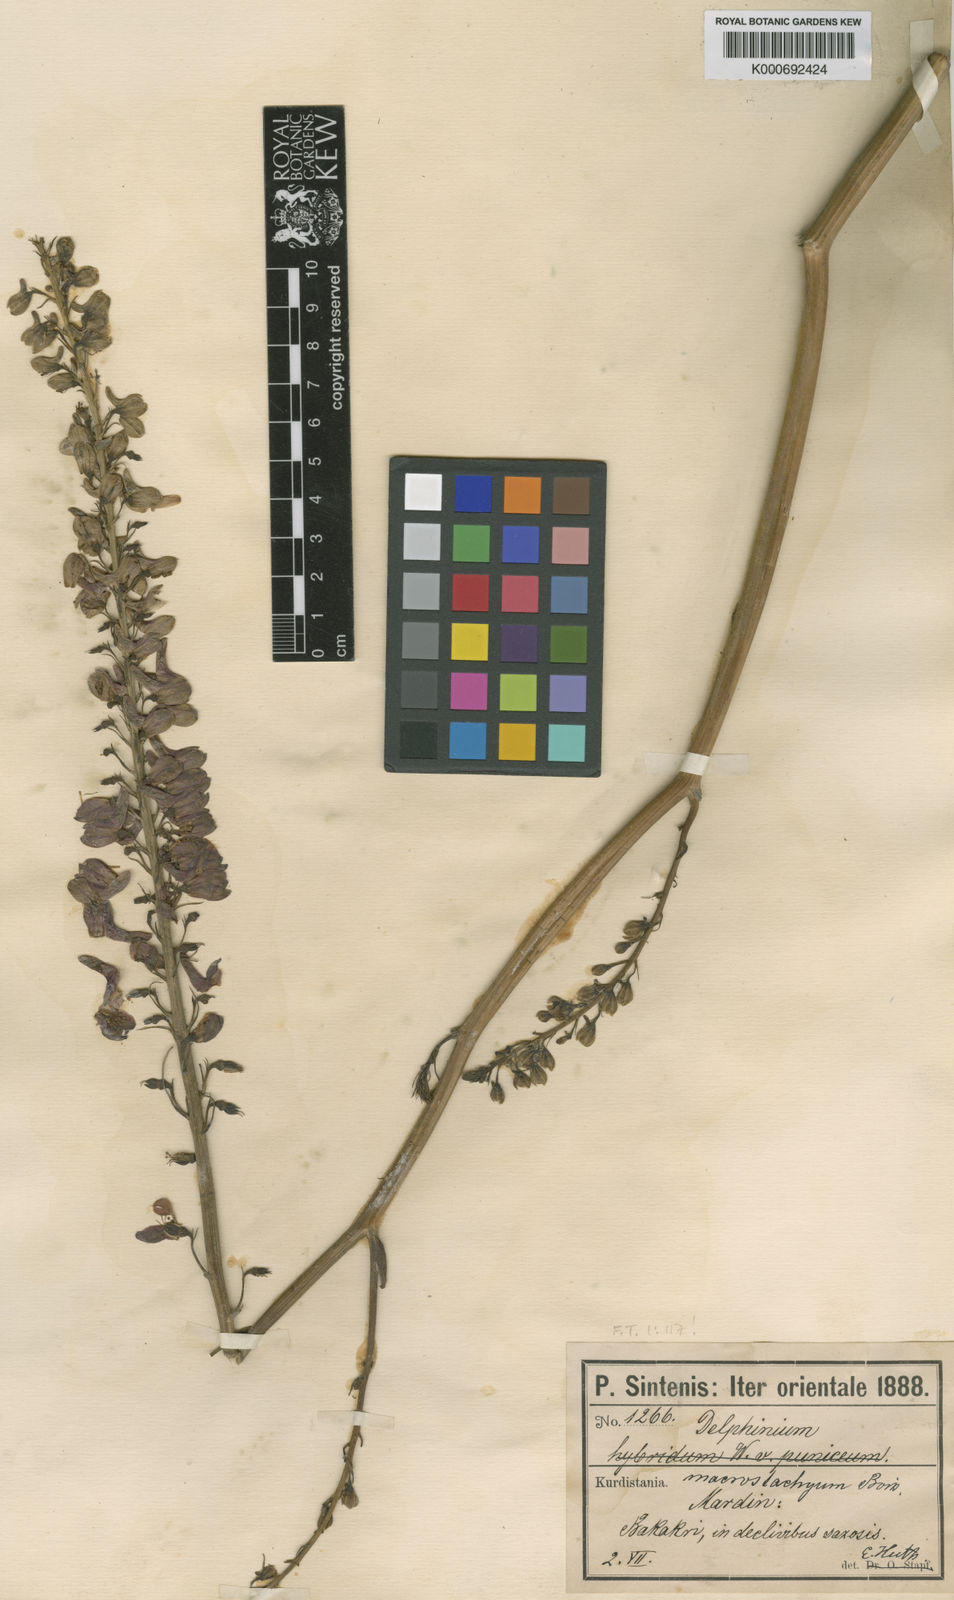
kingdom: Plantae
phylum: Tracheophyta
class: Magnoliopsida
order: Ranunculales
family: Ranunculaceae
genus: Delphinium
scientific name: Delphinium macrostachyum
